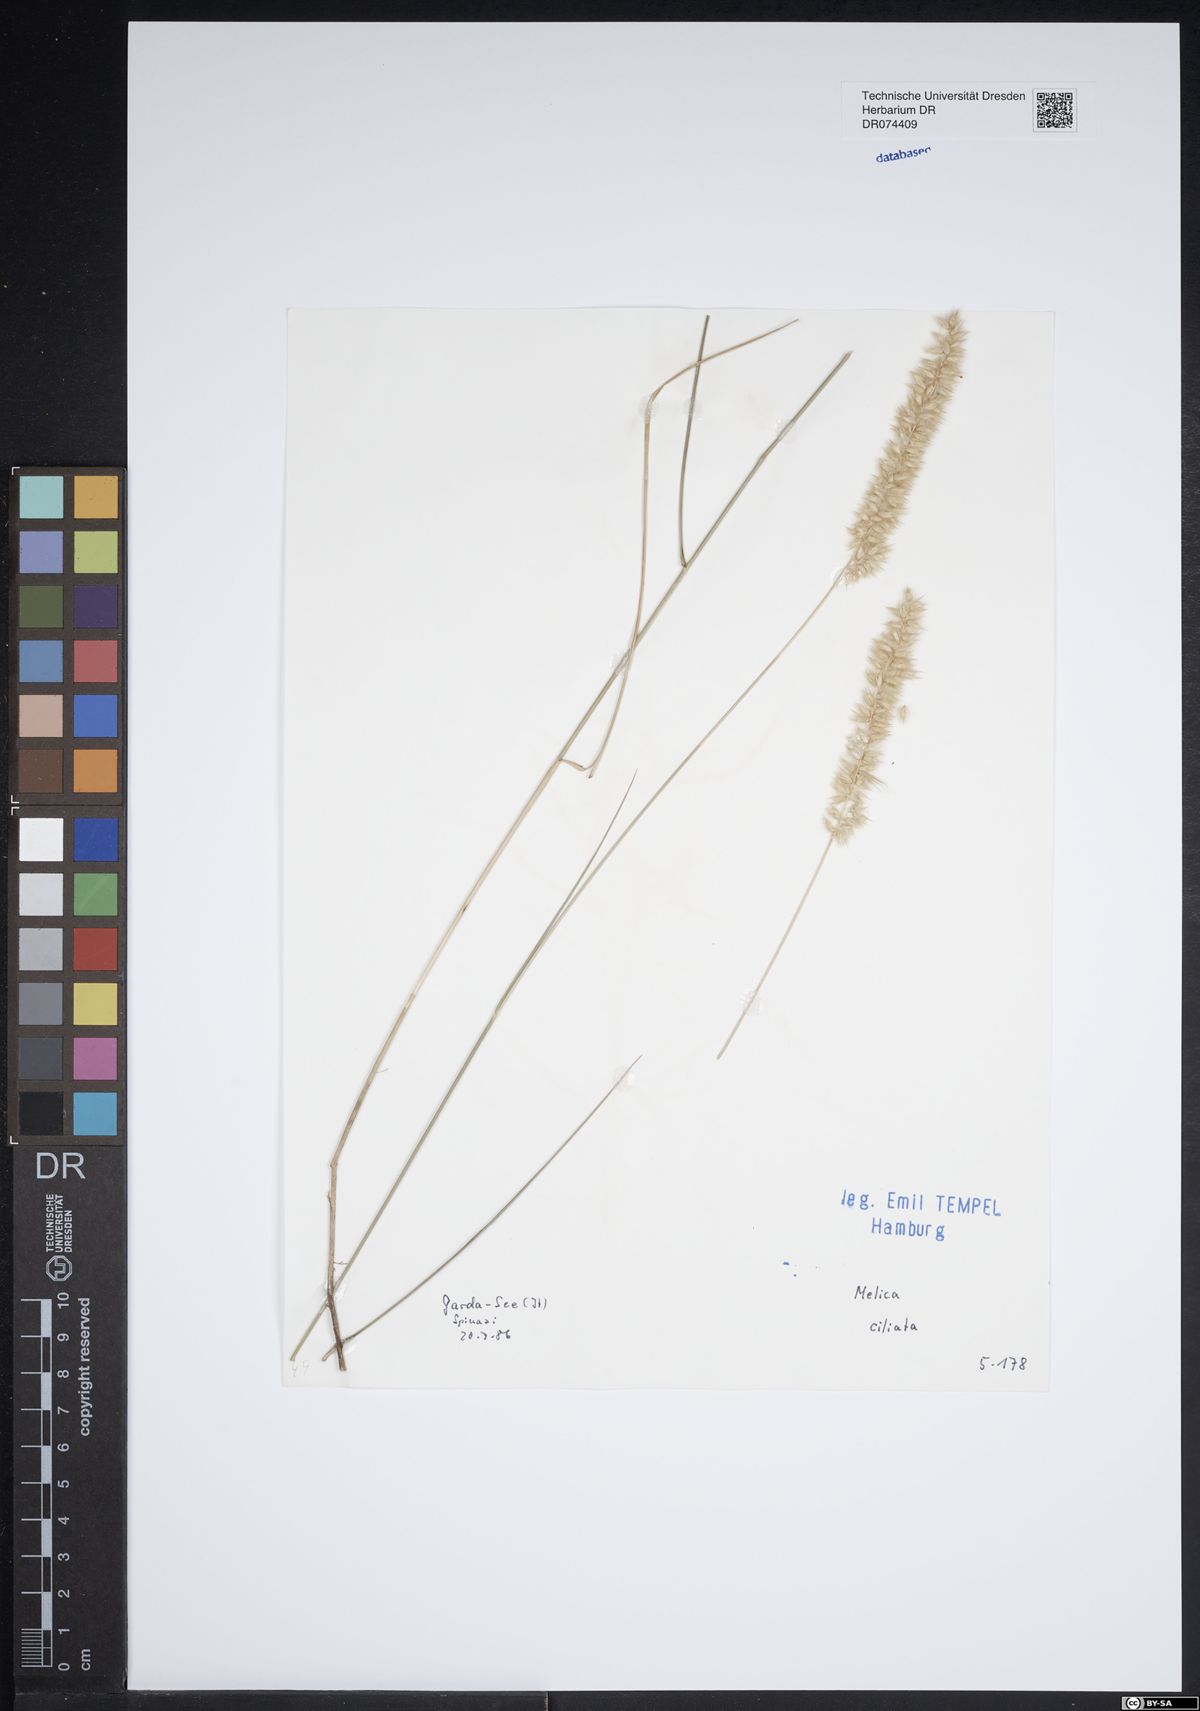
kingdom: Plantae
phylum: Tracheophyta
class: Liliopsida
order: Poales
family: Poaceae
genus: Melica
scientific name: Melica ciliata
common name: Hairy melicgrass
